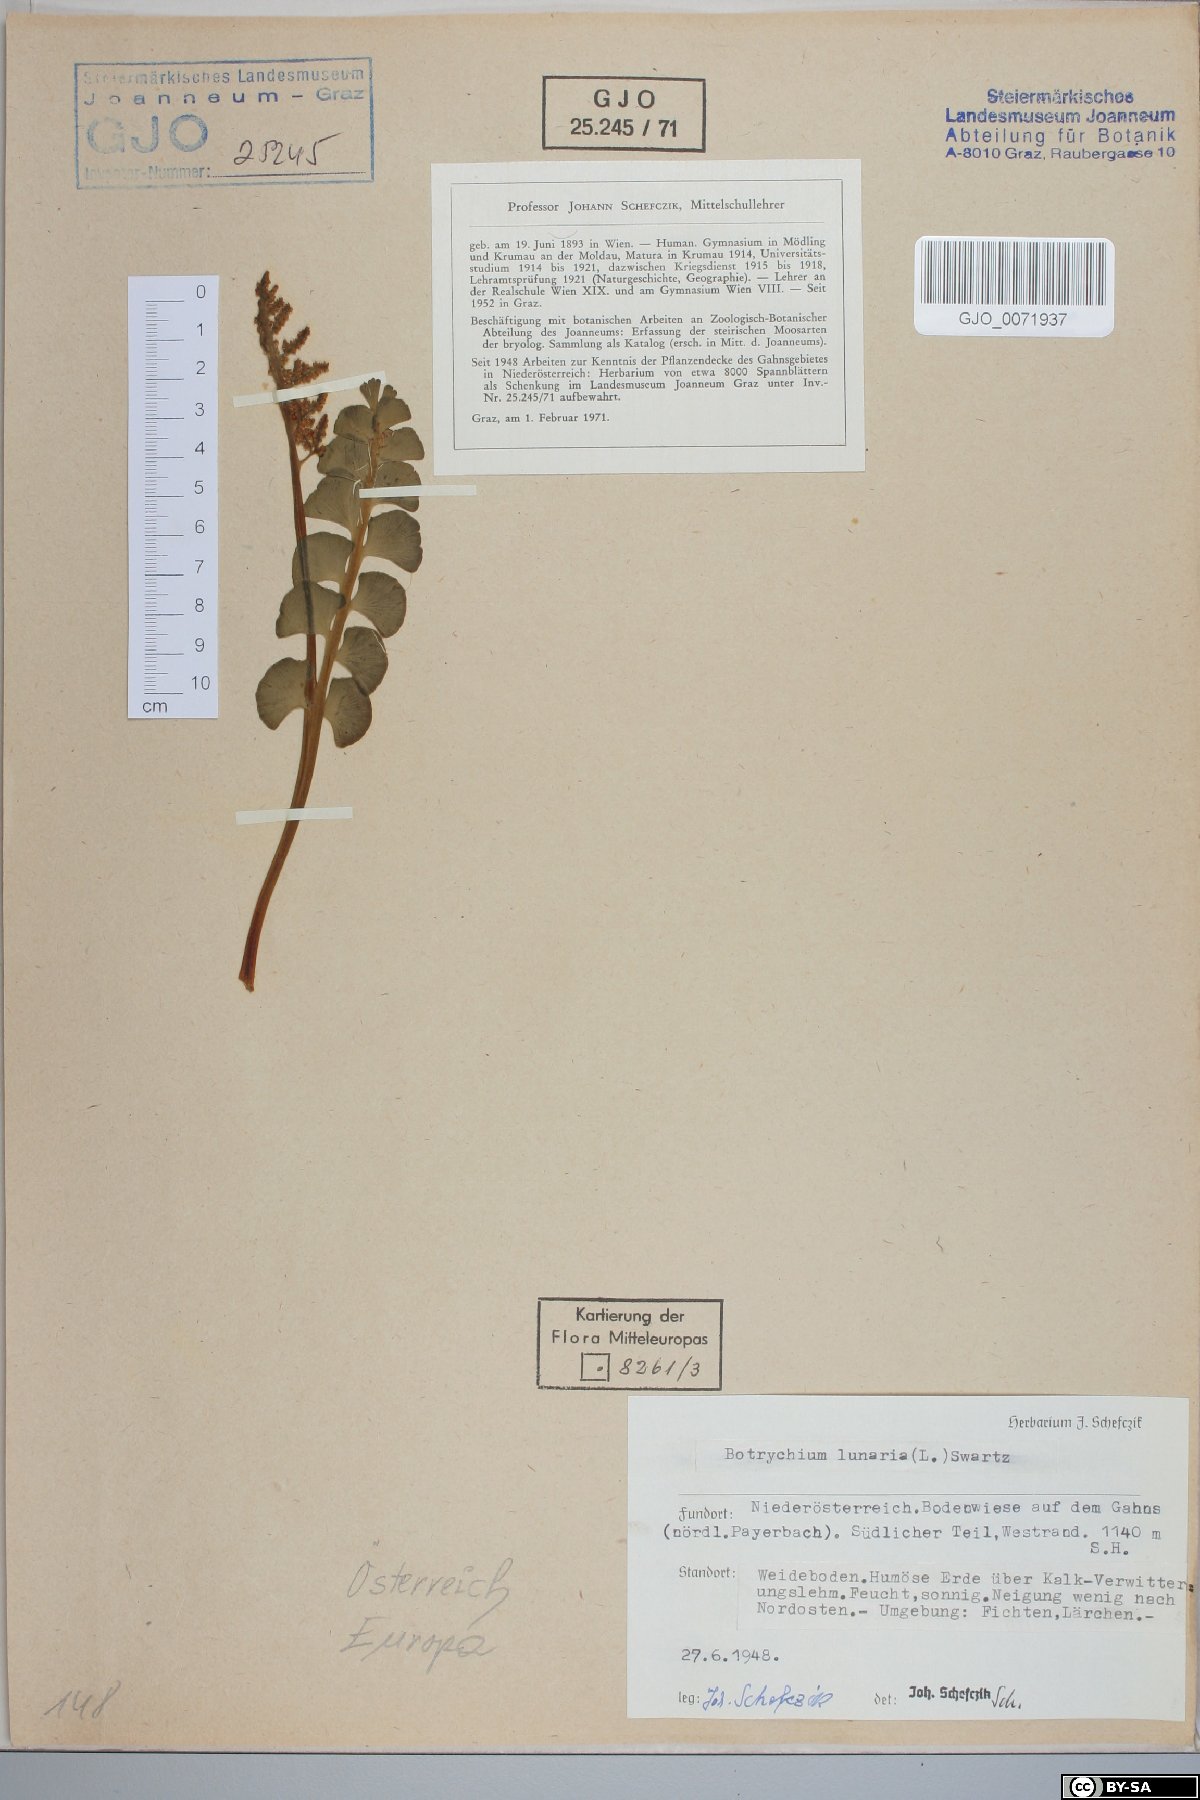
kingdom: Plantae
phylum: Tracheophyta
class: Polypodiopsida
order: Ophioglossales
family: Ophioglossaceae
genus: Botrychium
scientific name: Botrychium lunaria
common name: Moonwort
